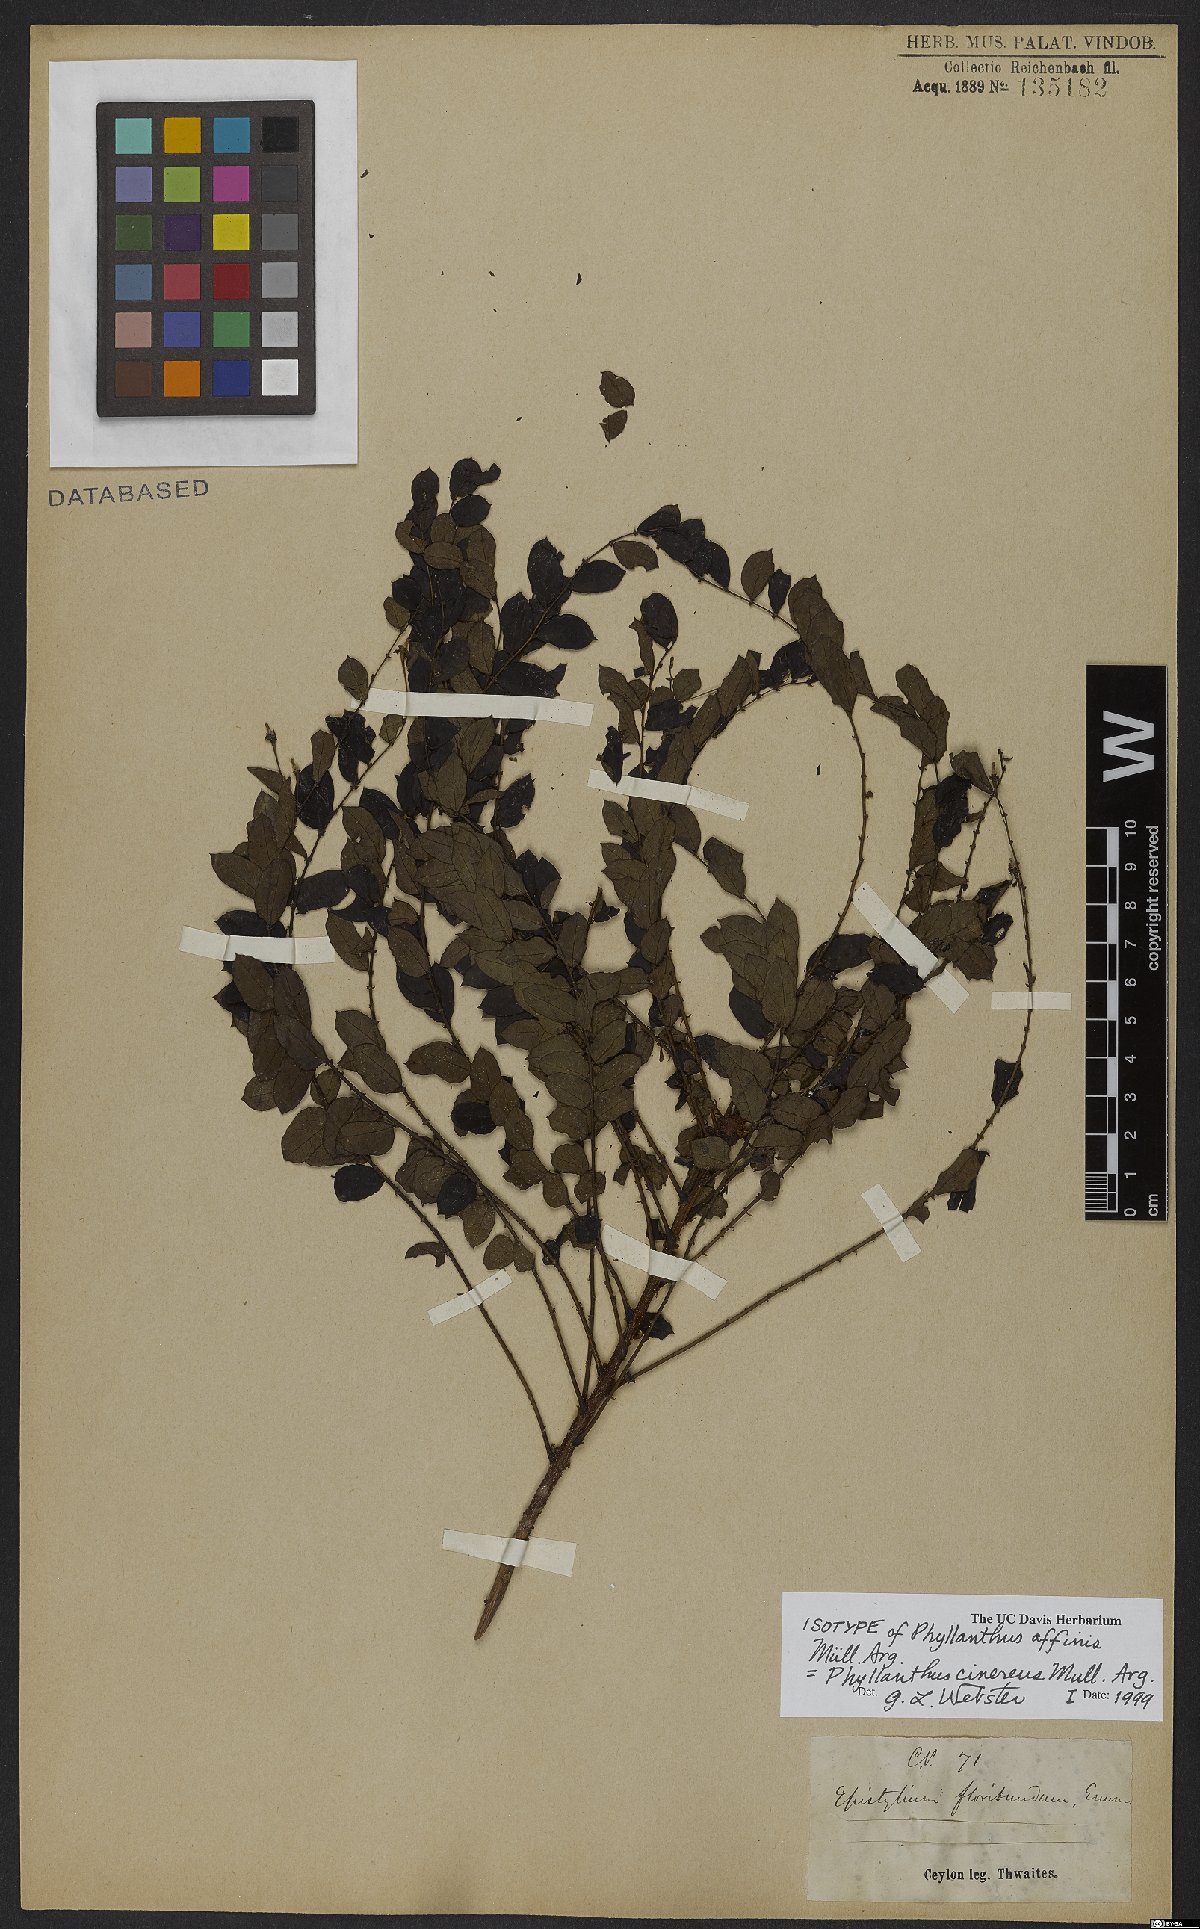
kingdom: Plantae
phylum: Tracheophyta
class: Magnoliopsida
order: Malpighiales
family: Phyllanthaceae
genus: Phyllanthus
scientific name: Phyllanthus cinereus
